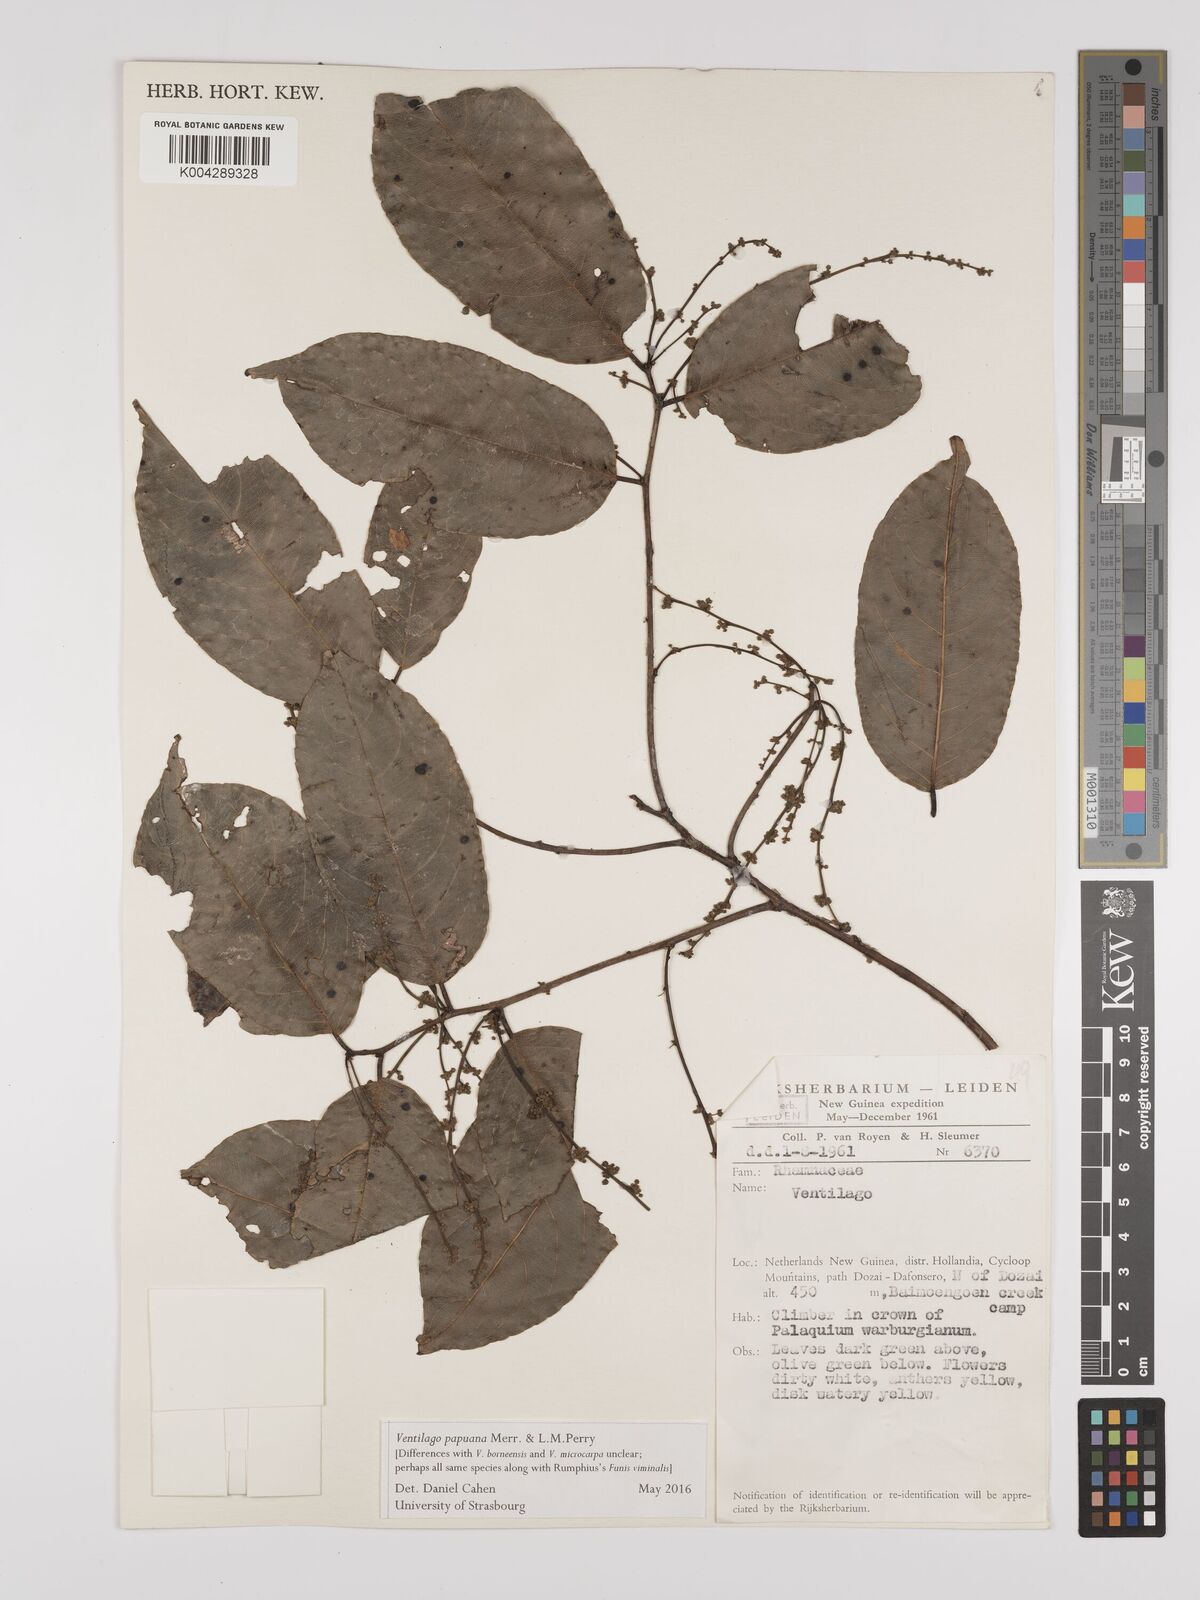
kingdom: Plantae
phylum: Tracheophyta
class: Magnoliopsida
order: Rosales
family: Rhamnaceae
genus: Ventilago
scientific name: Ventilago papuana
